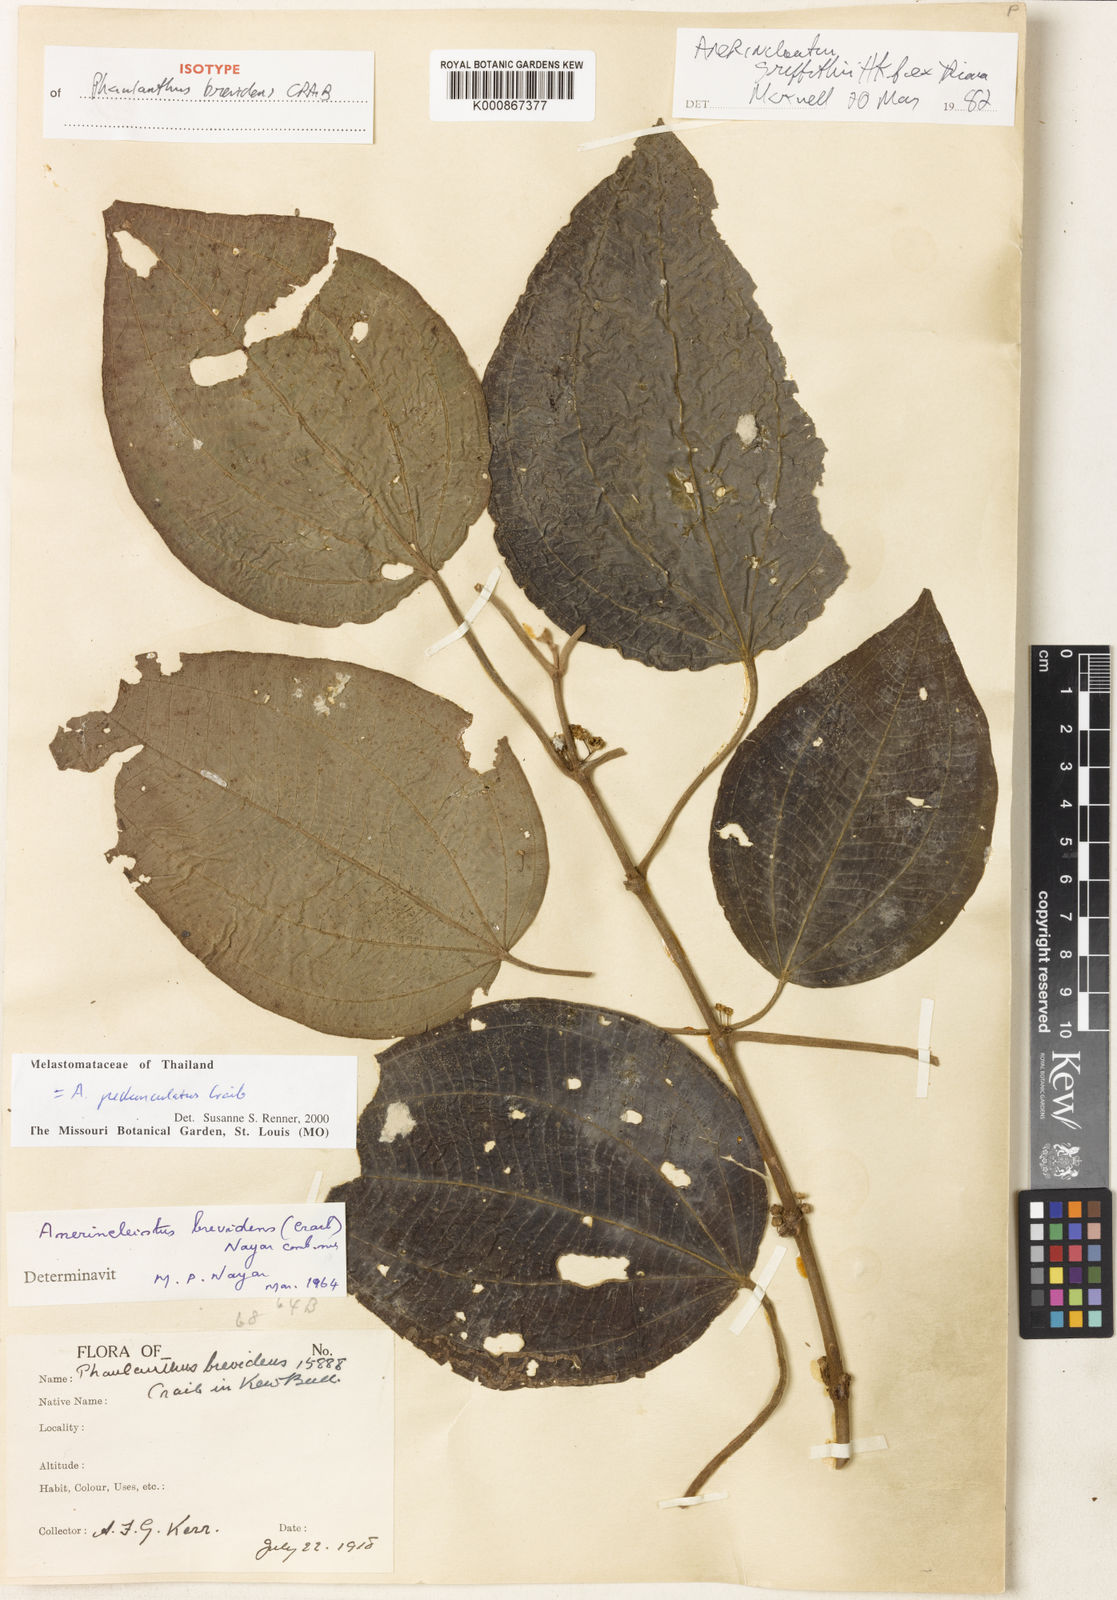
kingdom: Plantae
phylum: Tracheophyta
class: Magnoliopsida
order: Myrtales
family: Melastomataceae
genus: Anerincleistus
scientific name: Anerincleistus pedunculatus
